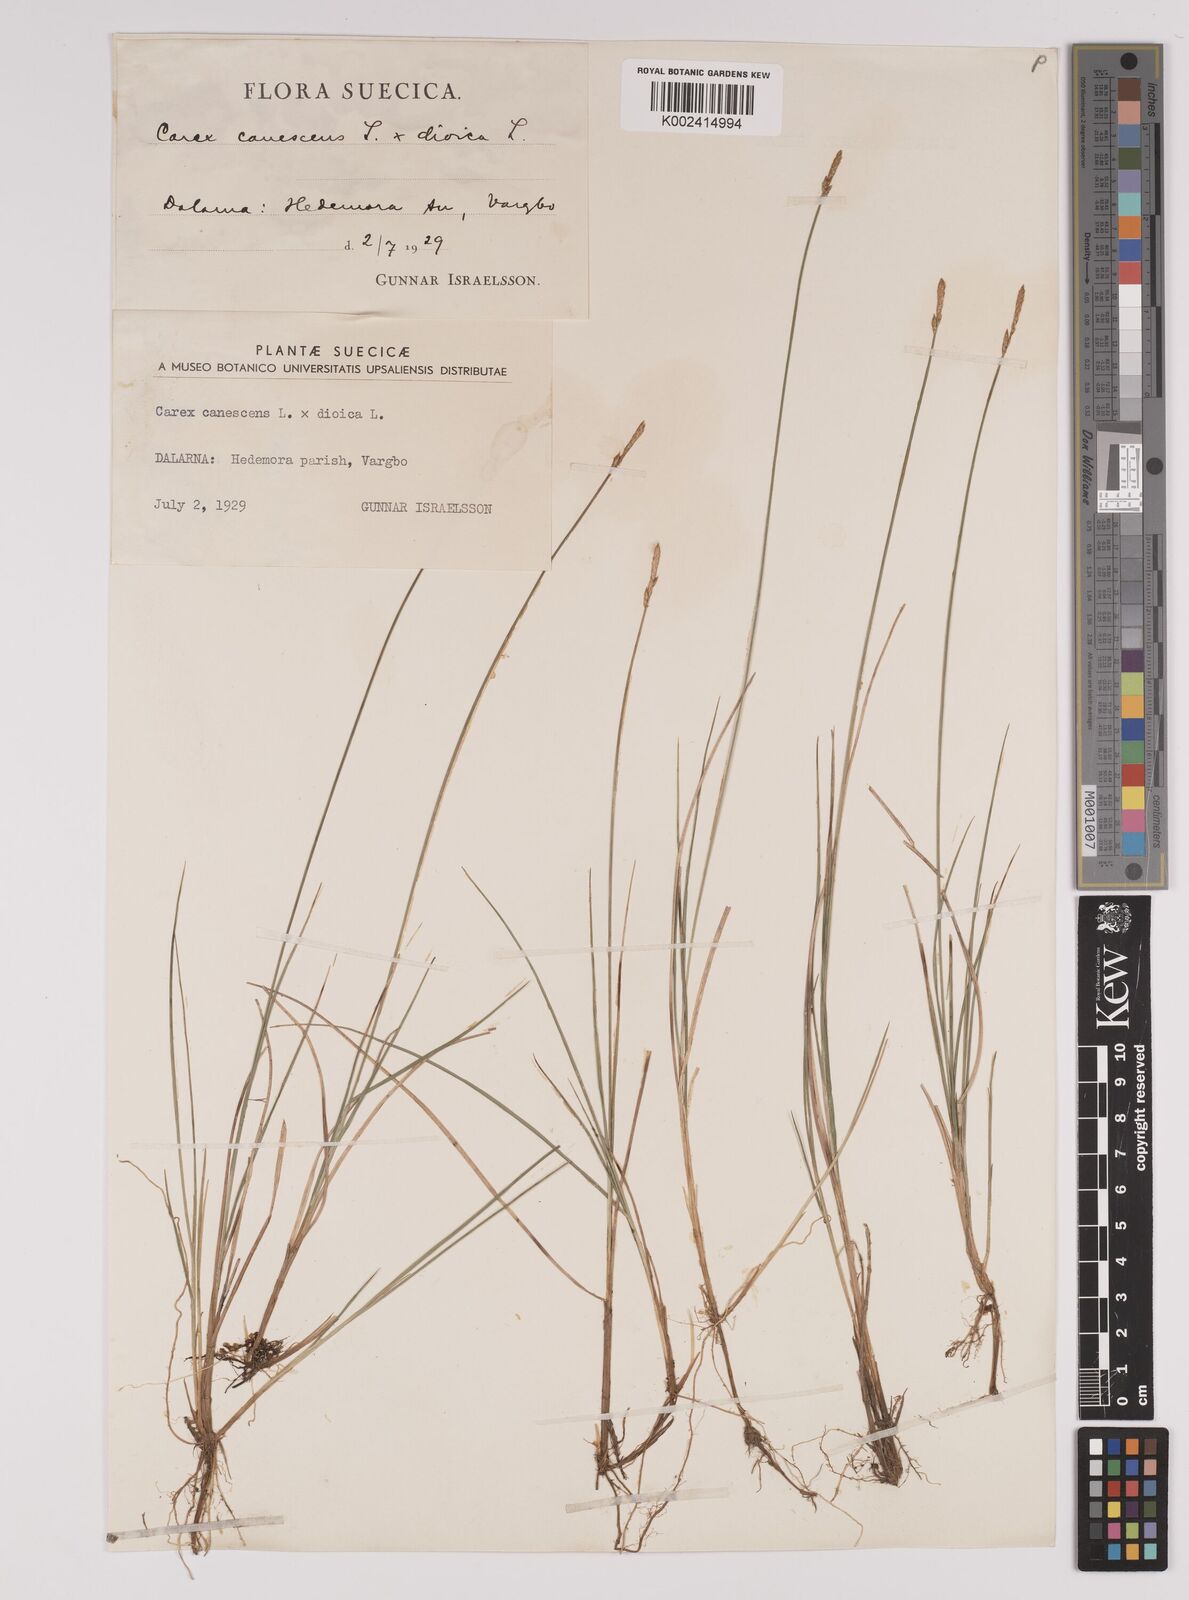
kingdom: Plantae
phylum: Tracheophyta
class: Liliopsida
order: Poales
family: Cyperaceae
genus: Carex
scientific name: Carex dioica
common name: Dioecious sedge
